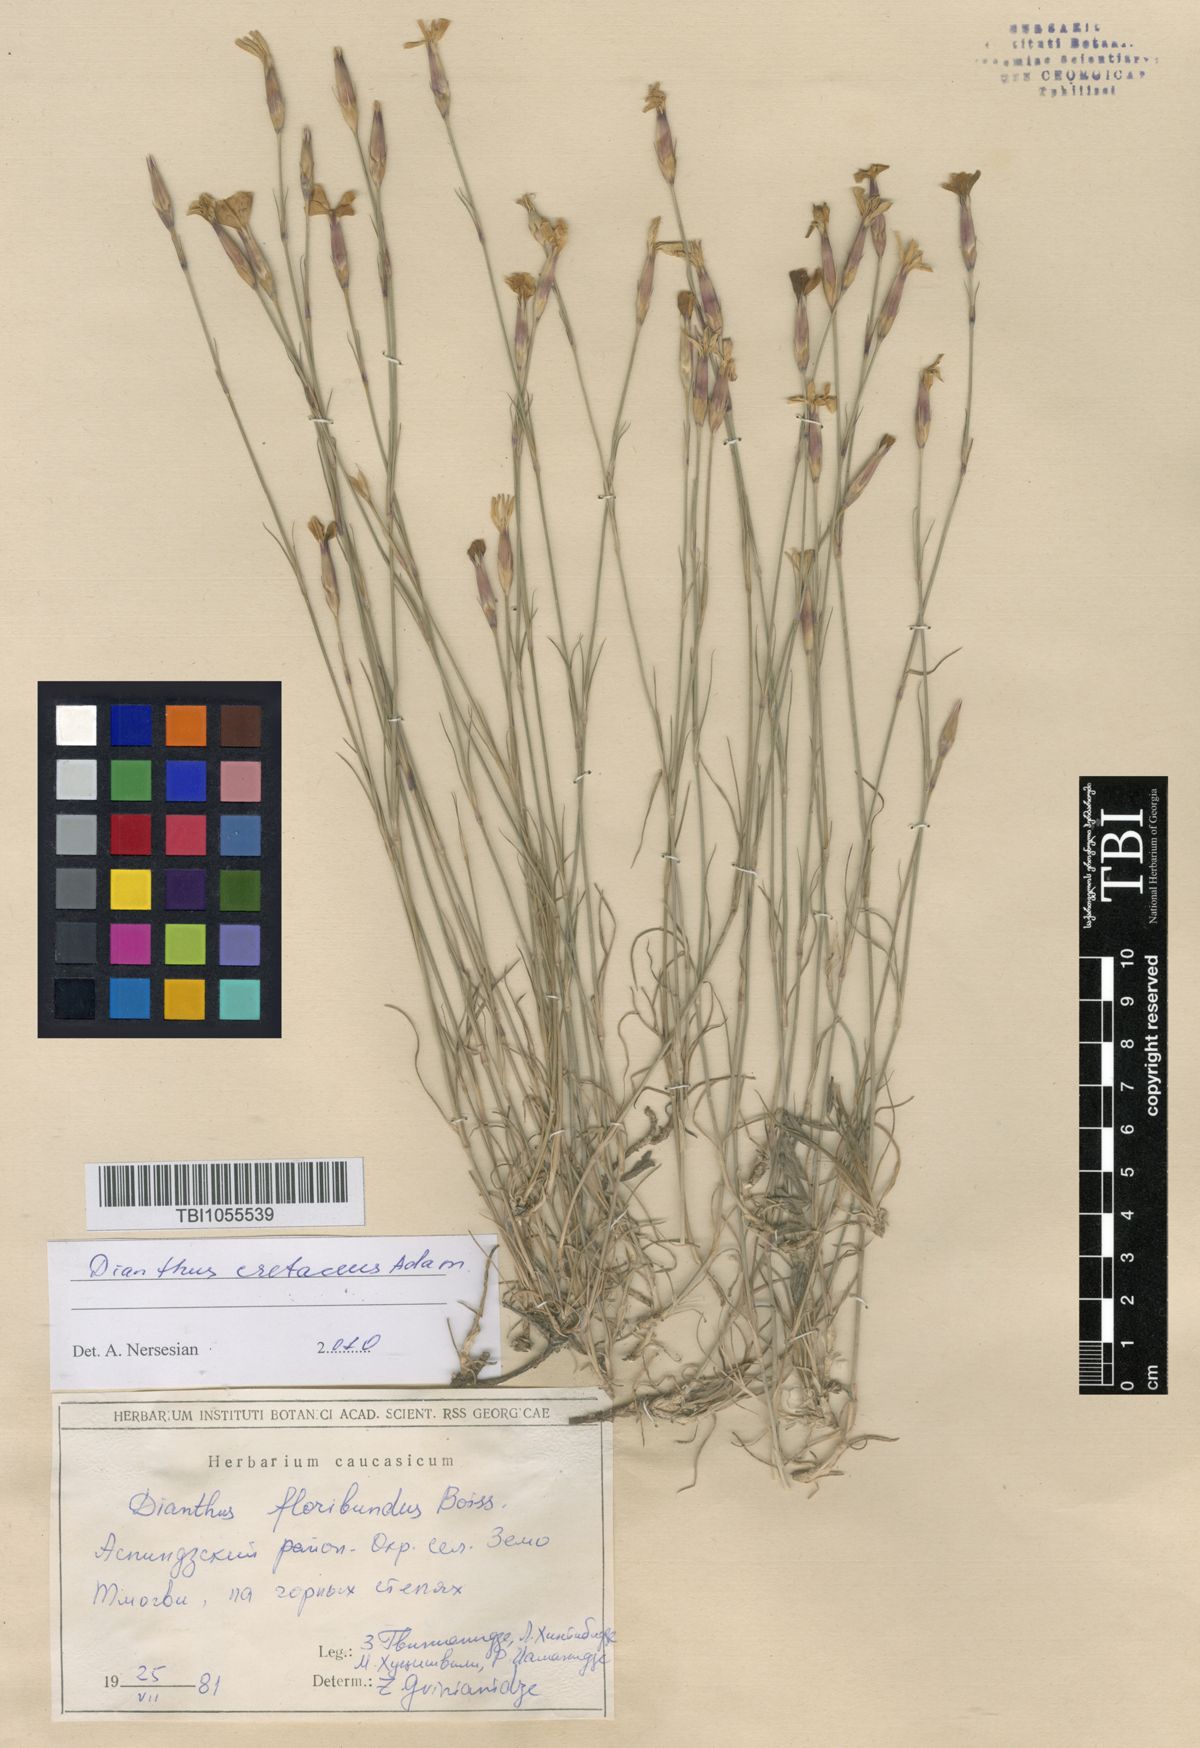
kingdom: Plantae
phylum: Tracheophyta
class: Magnoliopsida
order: Caryophyllales
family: Caryophyllaceae
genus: Dianthus
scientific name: Dianthus floribundus
